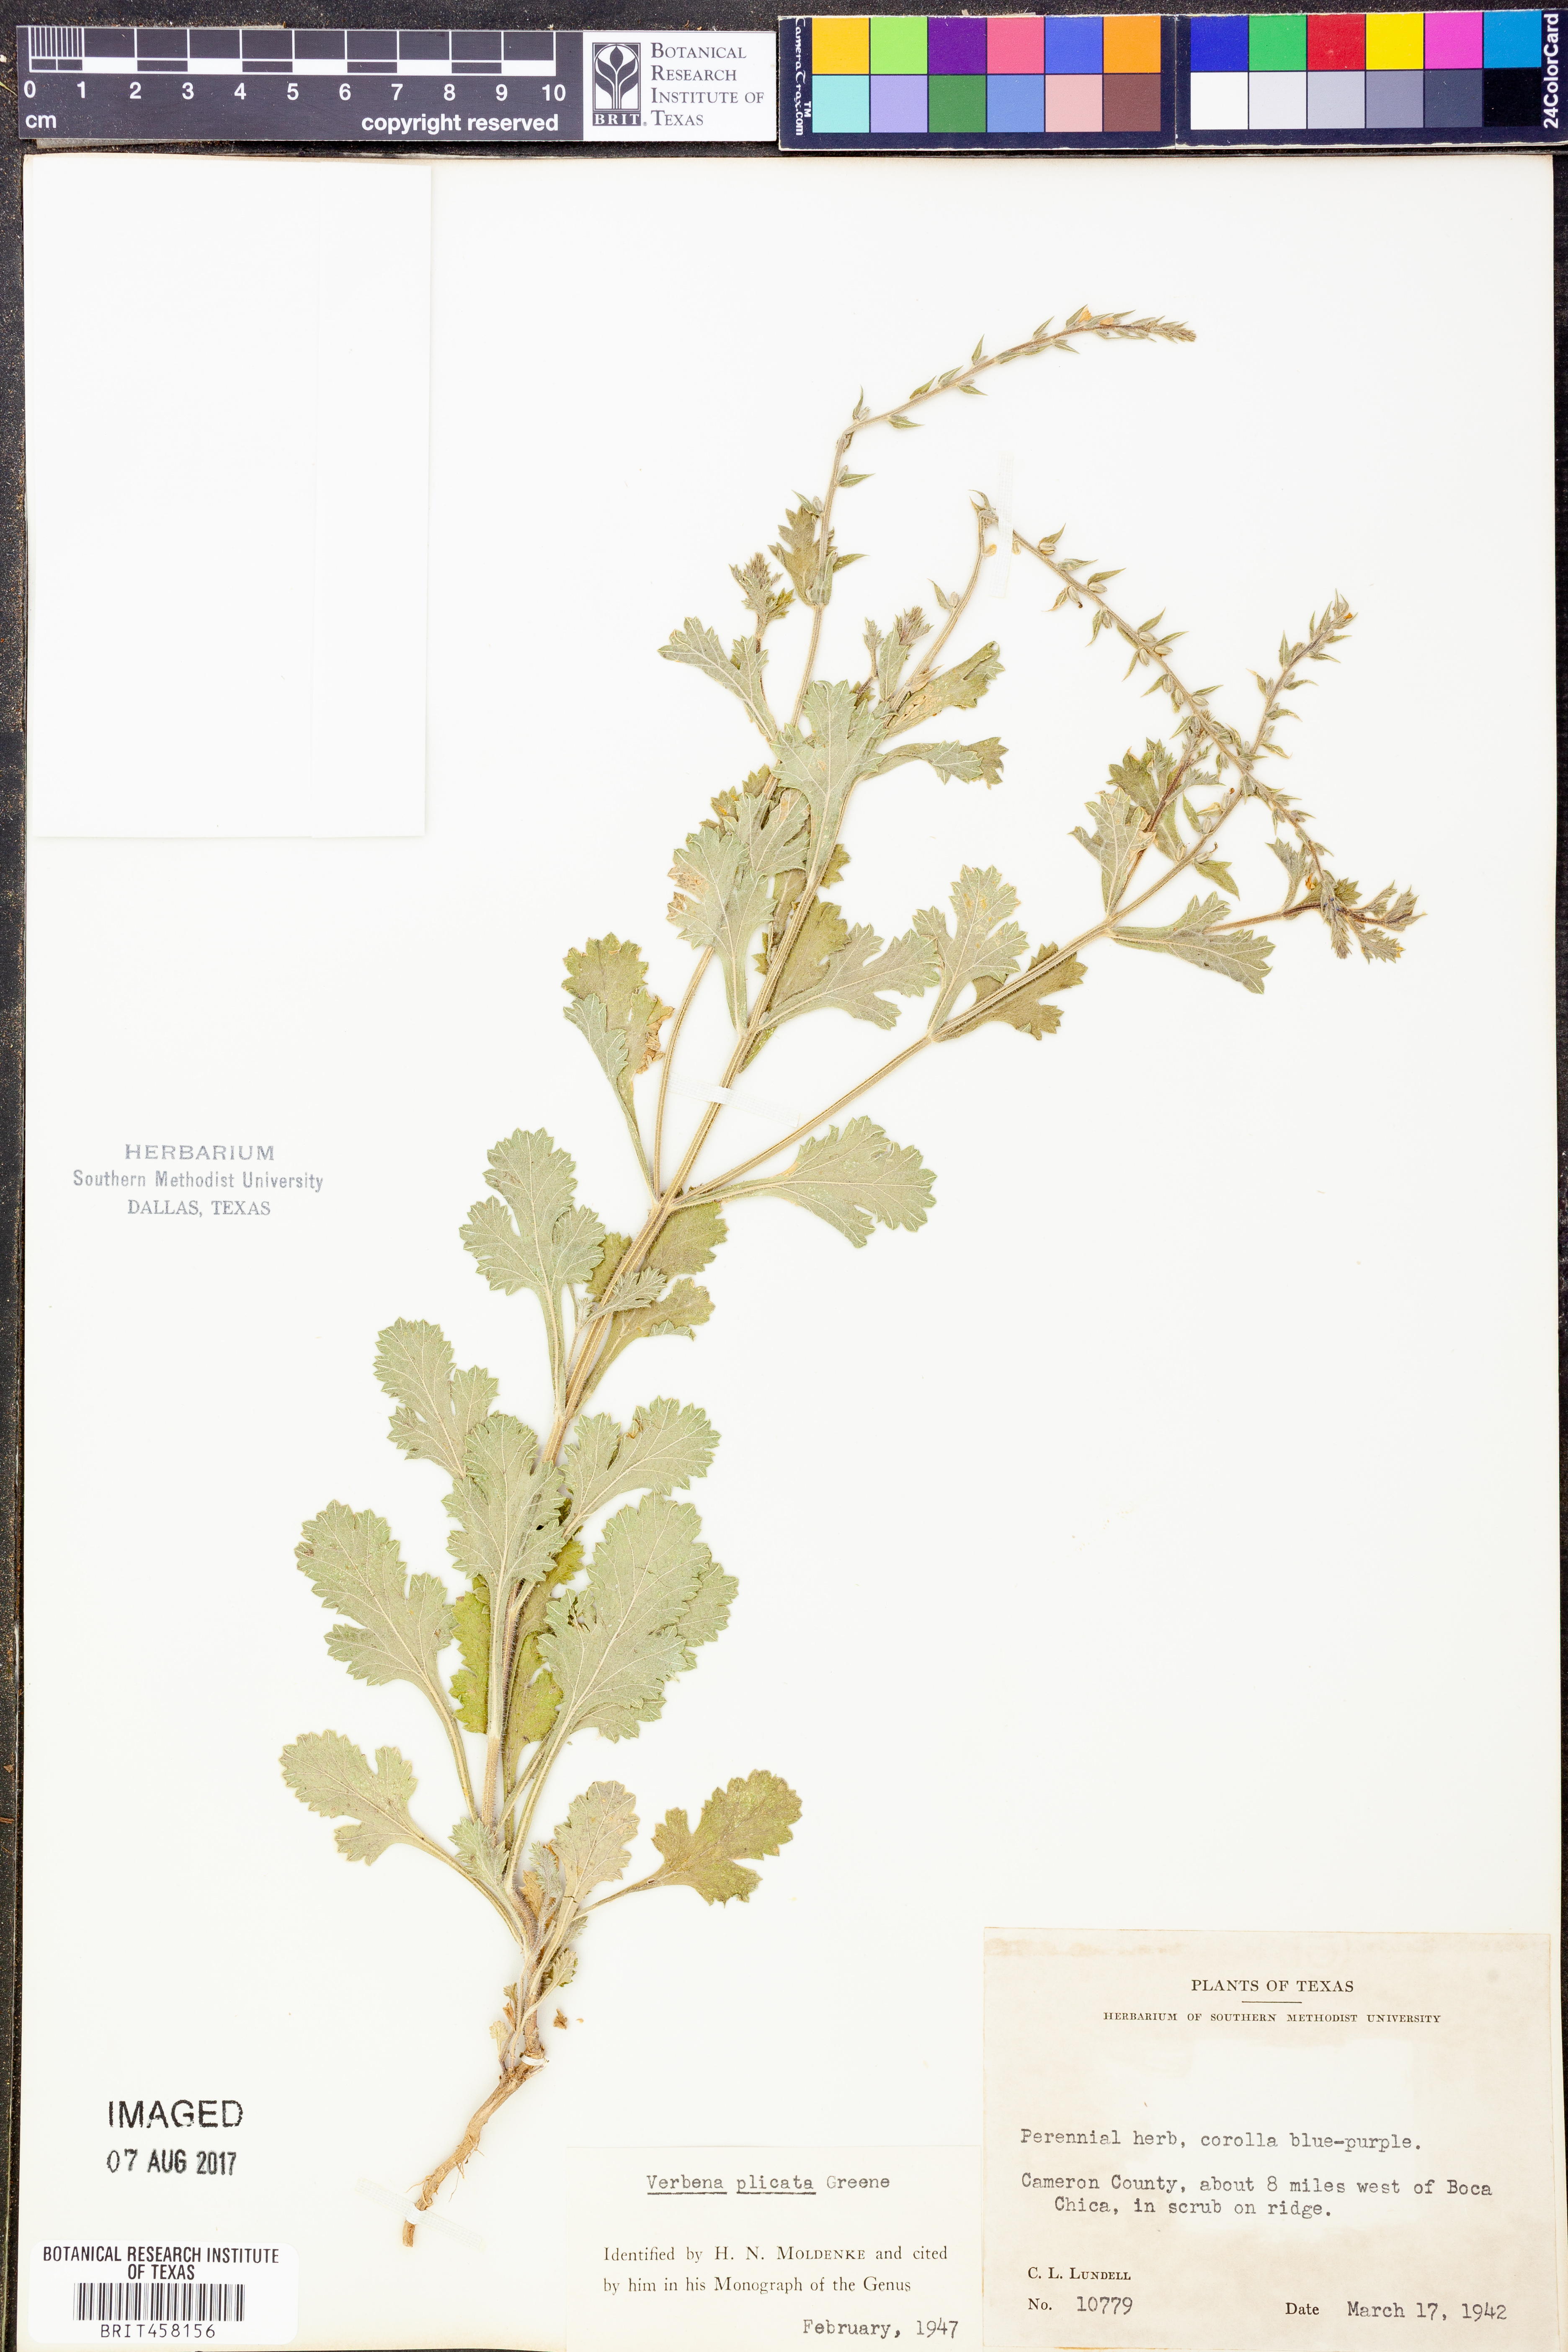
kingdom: Plantae
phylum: Tracheophyta
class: Magnoliopsida
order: Lamiales
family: Verbenaceae
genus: Verbena
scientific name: Verbena plicata
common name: Fan-leaf vervain
